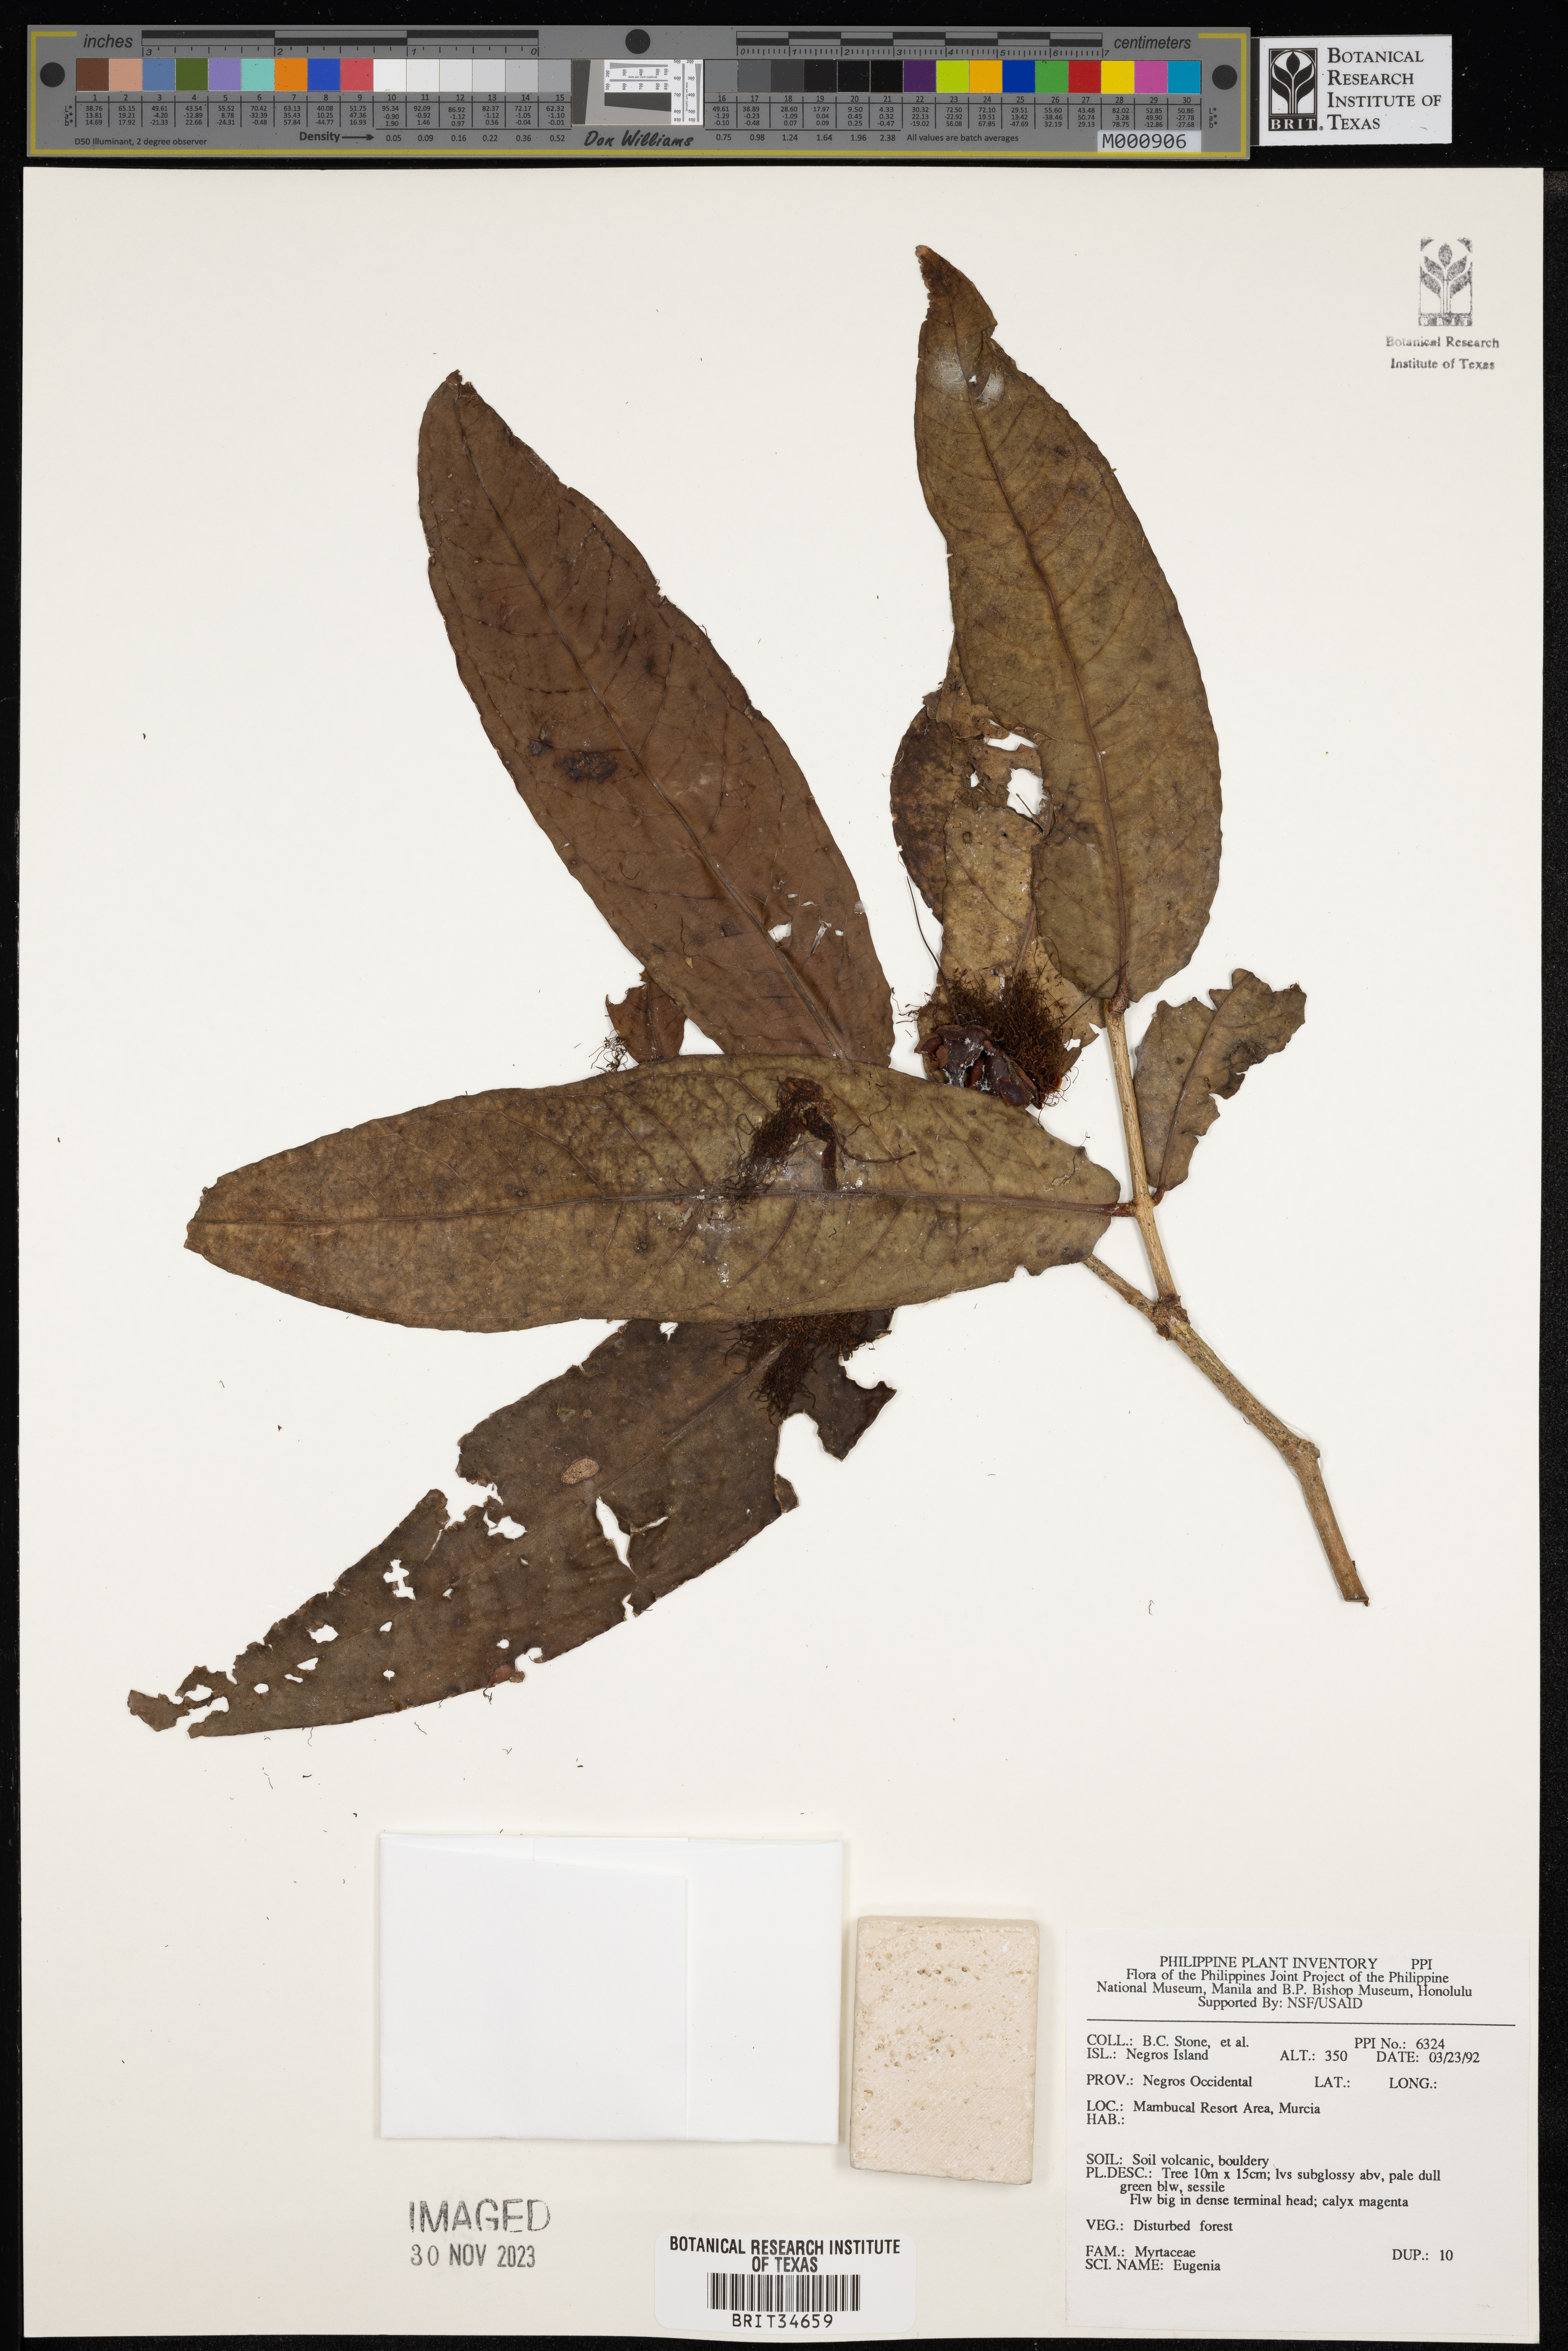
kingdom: Plantae
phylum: Tracheophyta
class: Magnoliopsida
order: Myrtales
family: Myrtaceae
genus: Eugenia
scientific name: Eugenia
